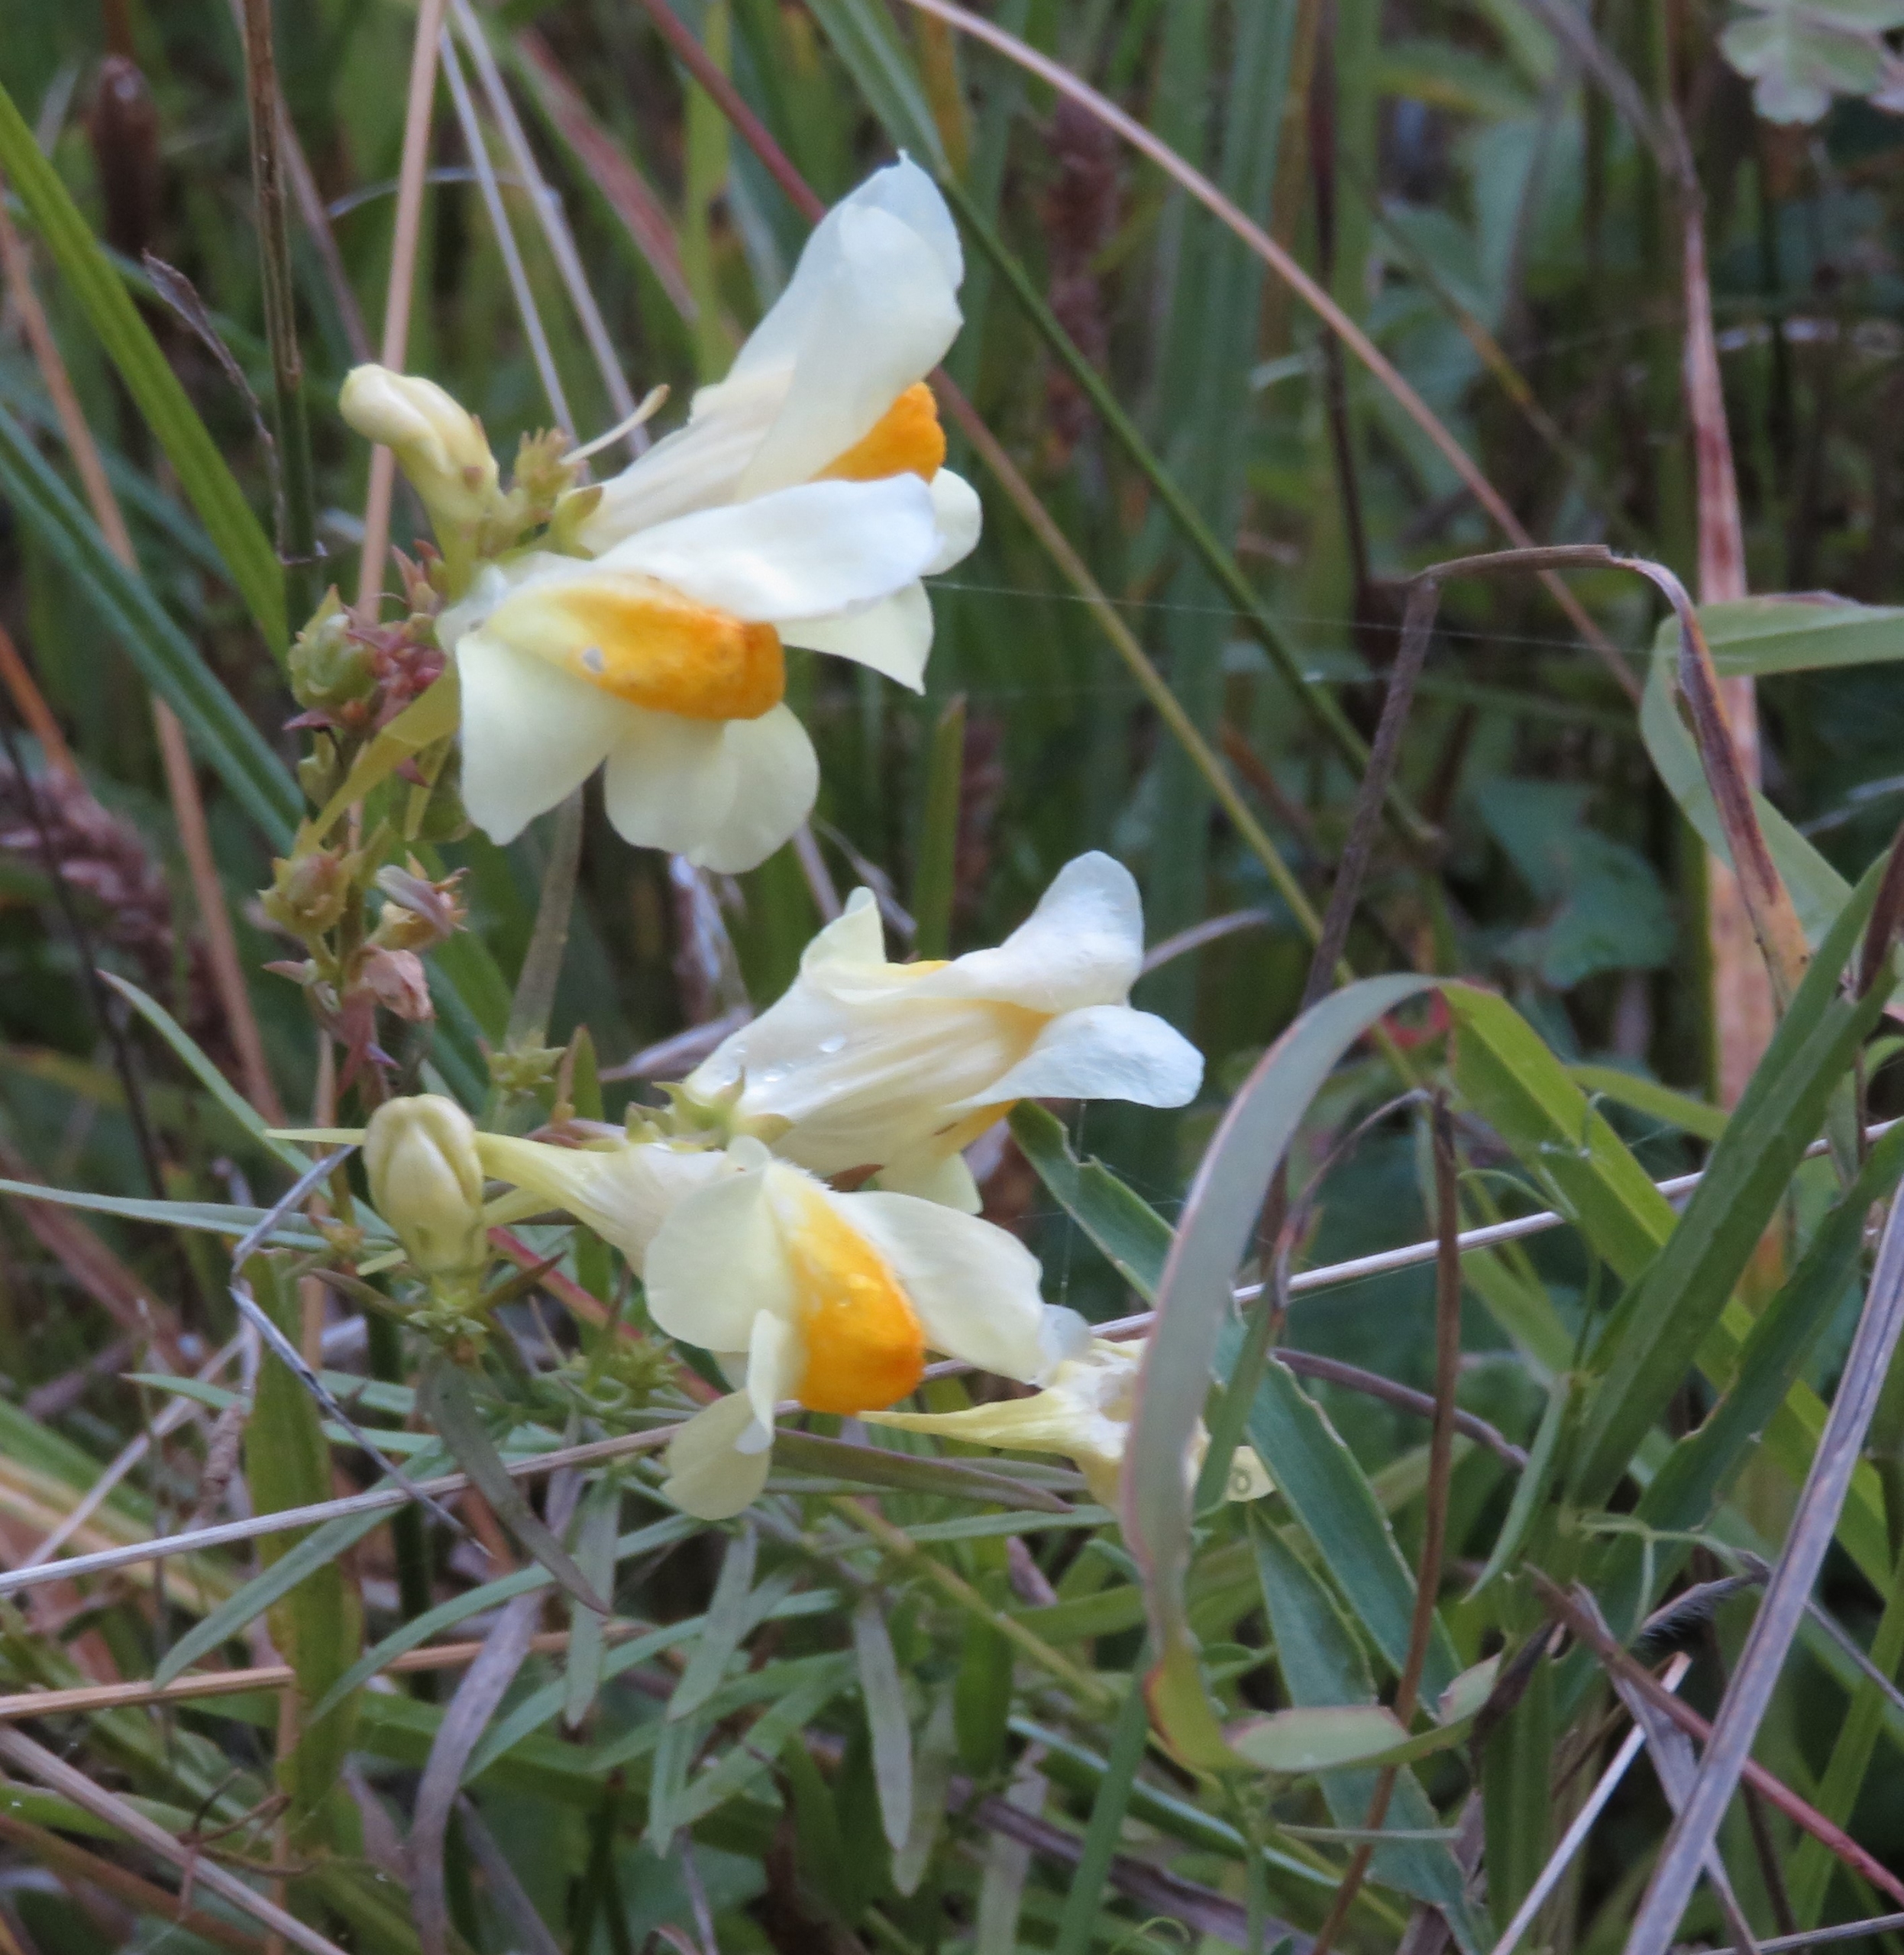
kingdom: Plantae
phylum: Tracheophyta
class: Magnoliopsida
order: Lamiales
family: Plantaginaceae
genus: Linaria
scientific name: Linaria vulgaris
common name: Almindelig torskemund
